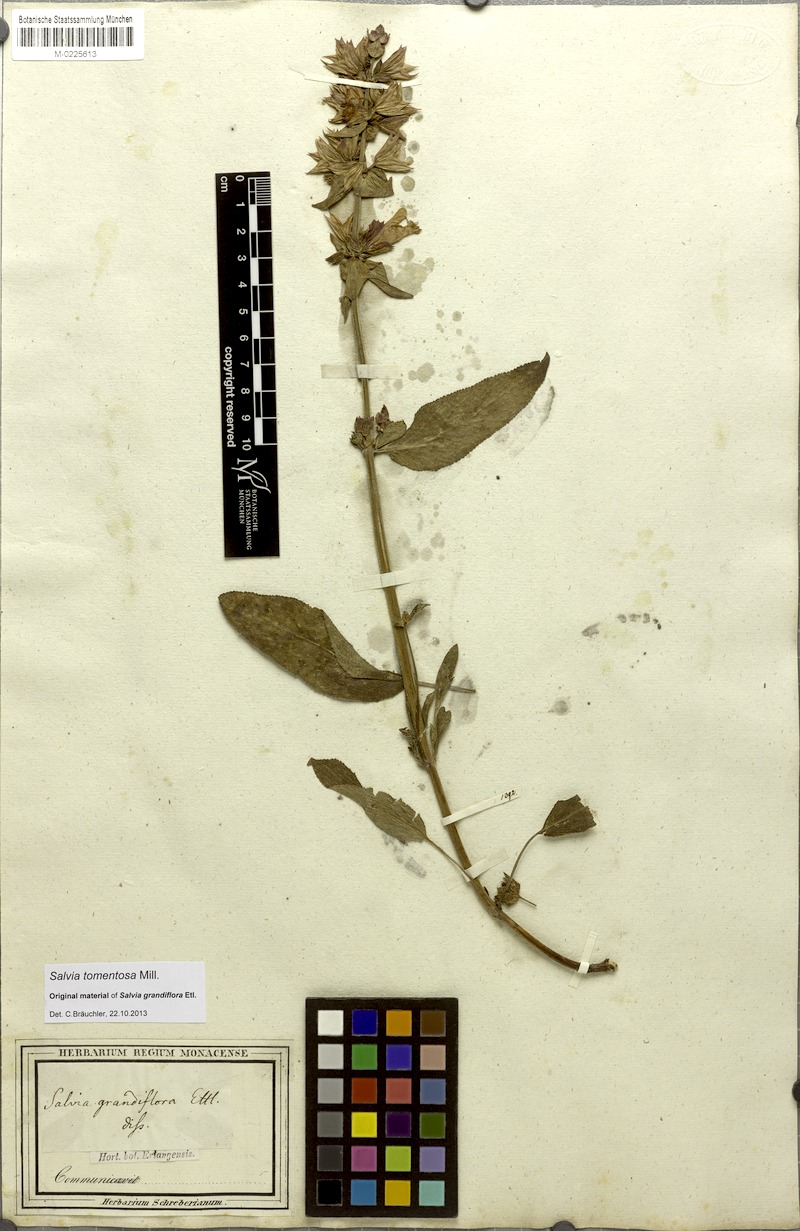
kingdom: Plantae
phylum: Tracheophyta
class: Magnoliopsida
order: Lamiales
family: Lamiaceae
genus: Salvia
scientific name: Salvia tomentosa
